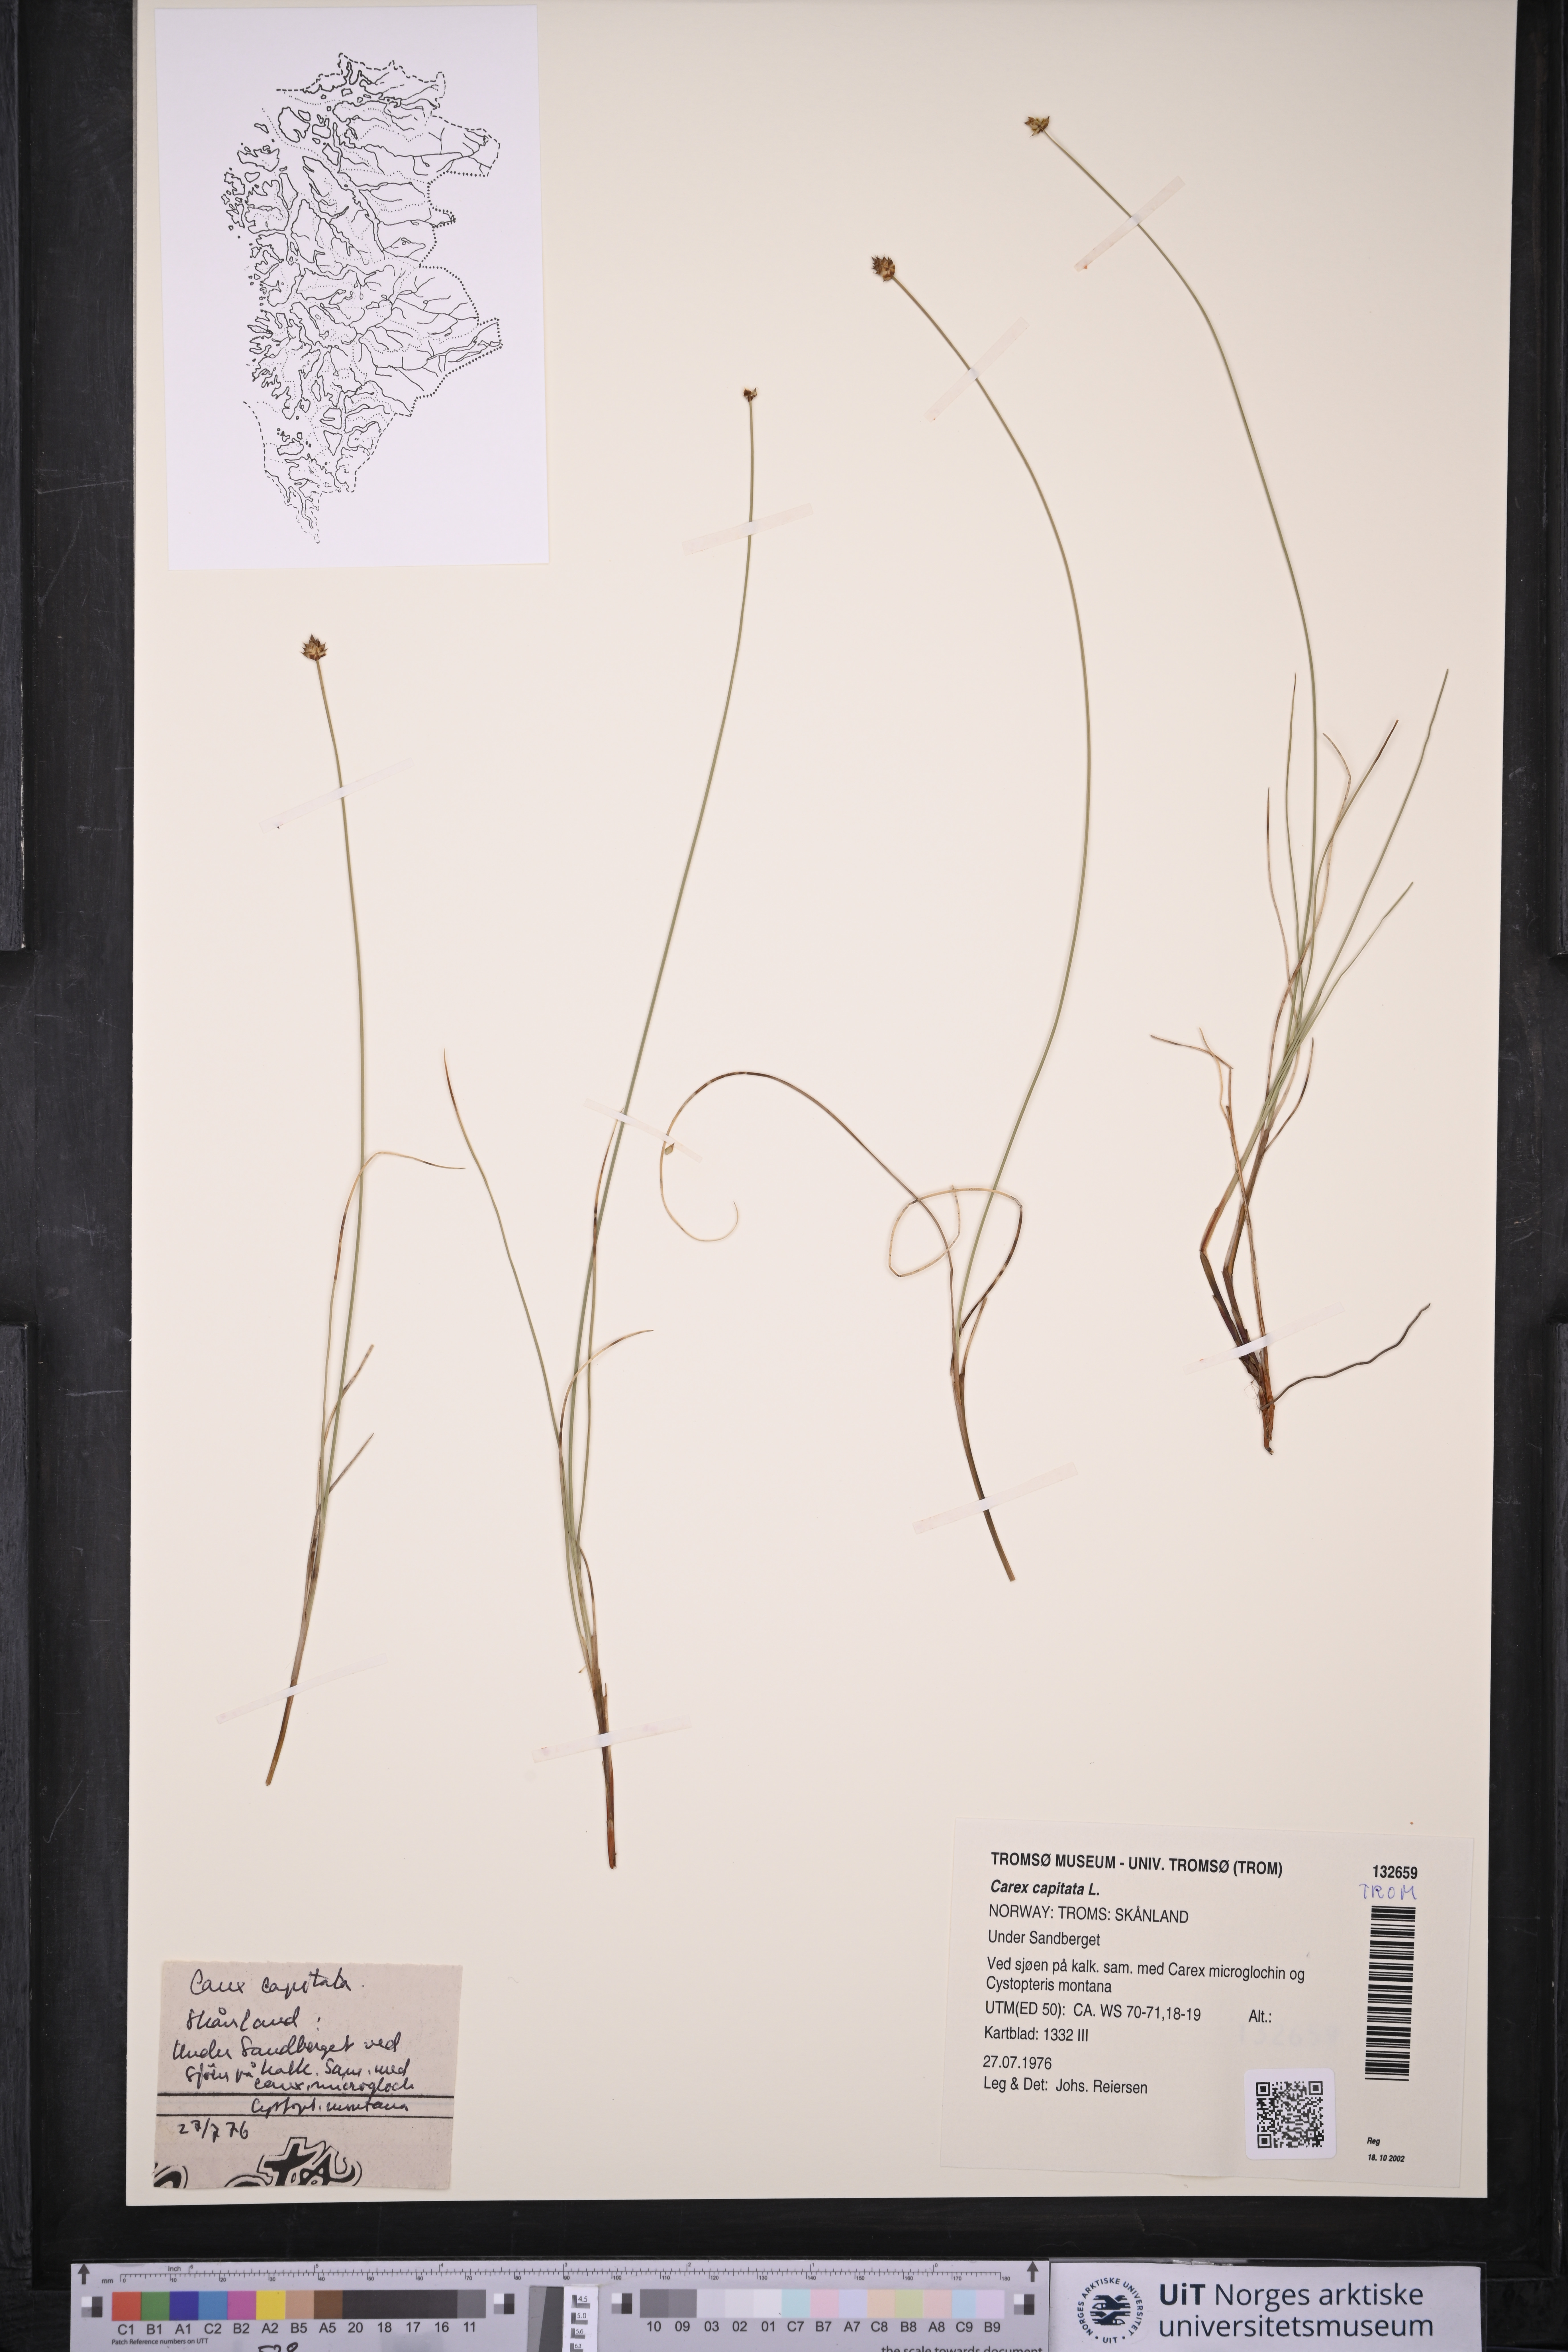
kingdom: Plantae
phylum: Tracheophyta
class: Liliopsida
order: Poales
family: Cyperaceae
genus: Carex
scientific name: Carex capitata
